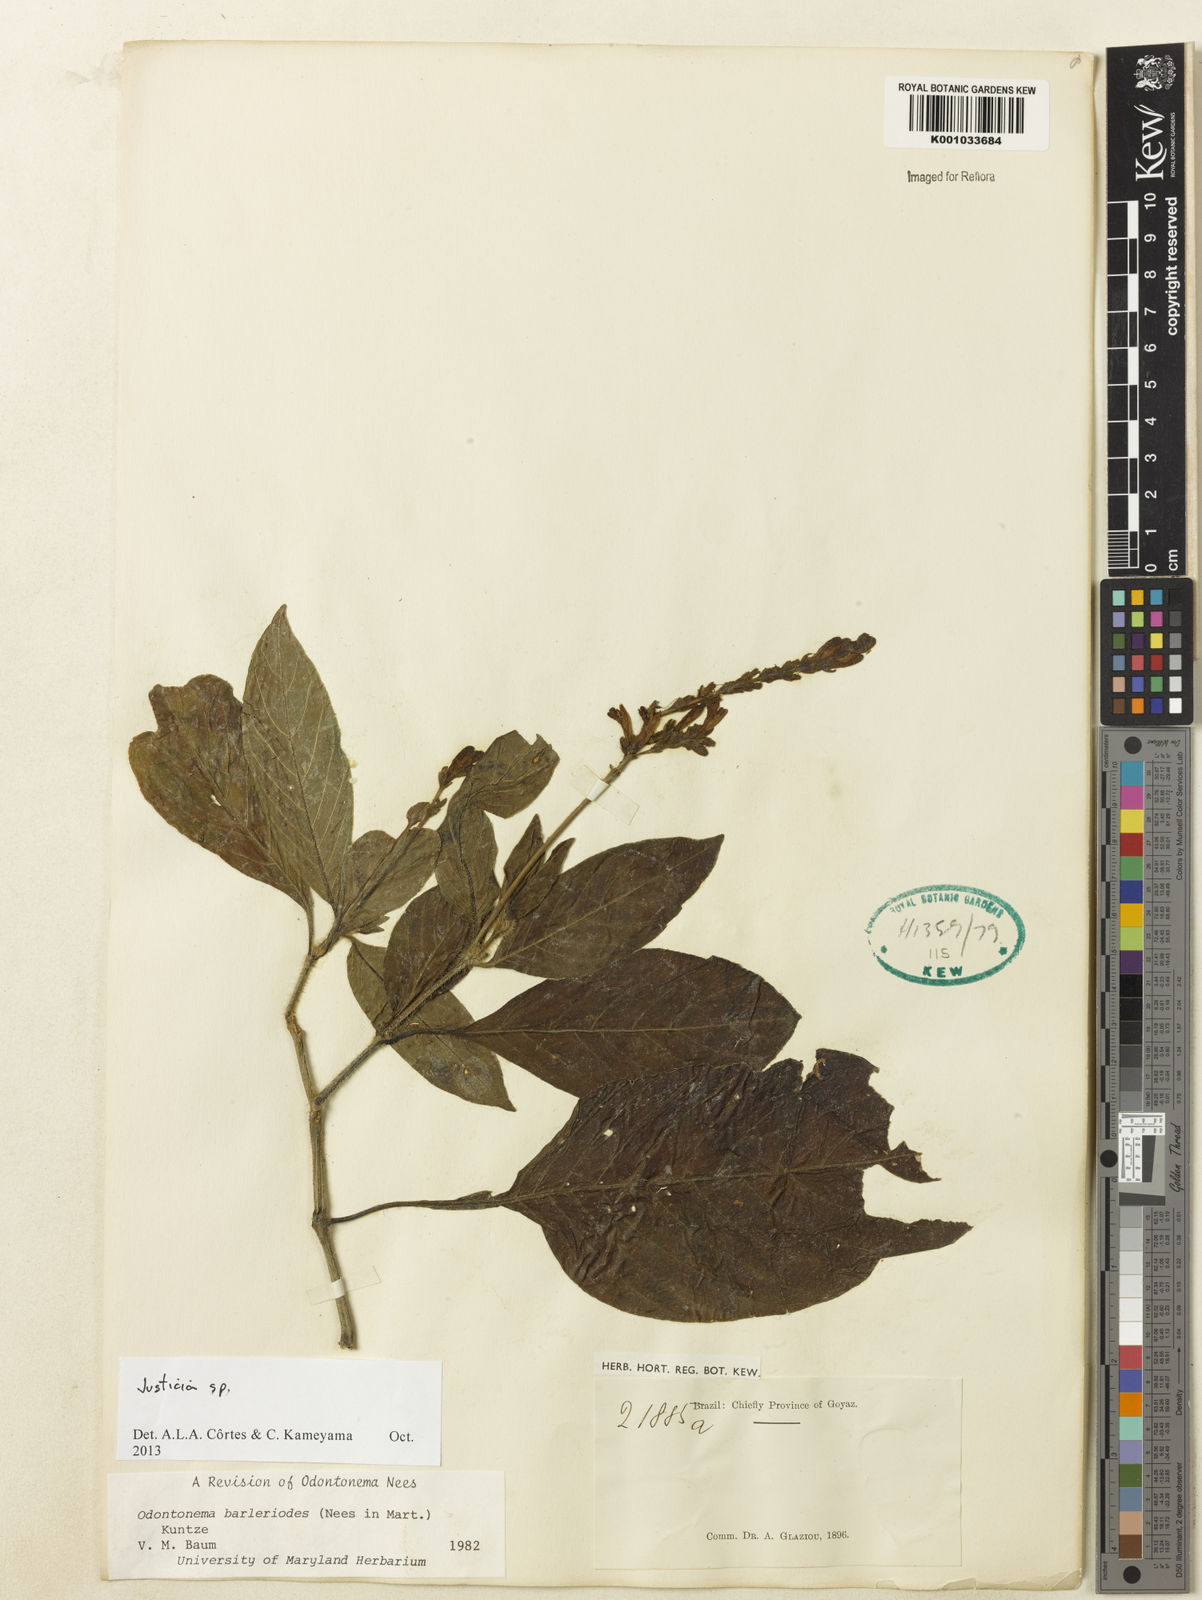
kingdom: Plantae
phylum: Tracheophyta
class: Magnoliopsida
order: Lamiales
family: Acanthaceae
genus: Justicia
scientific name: Justicia
